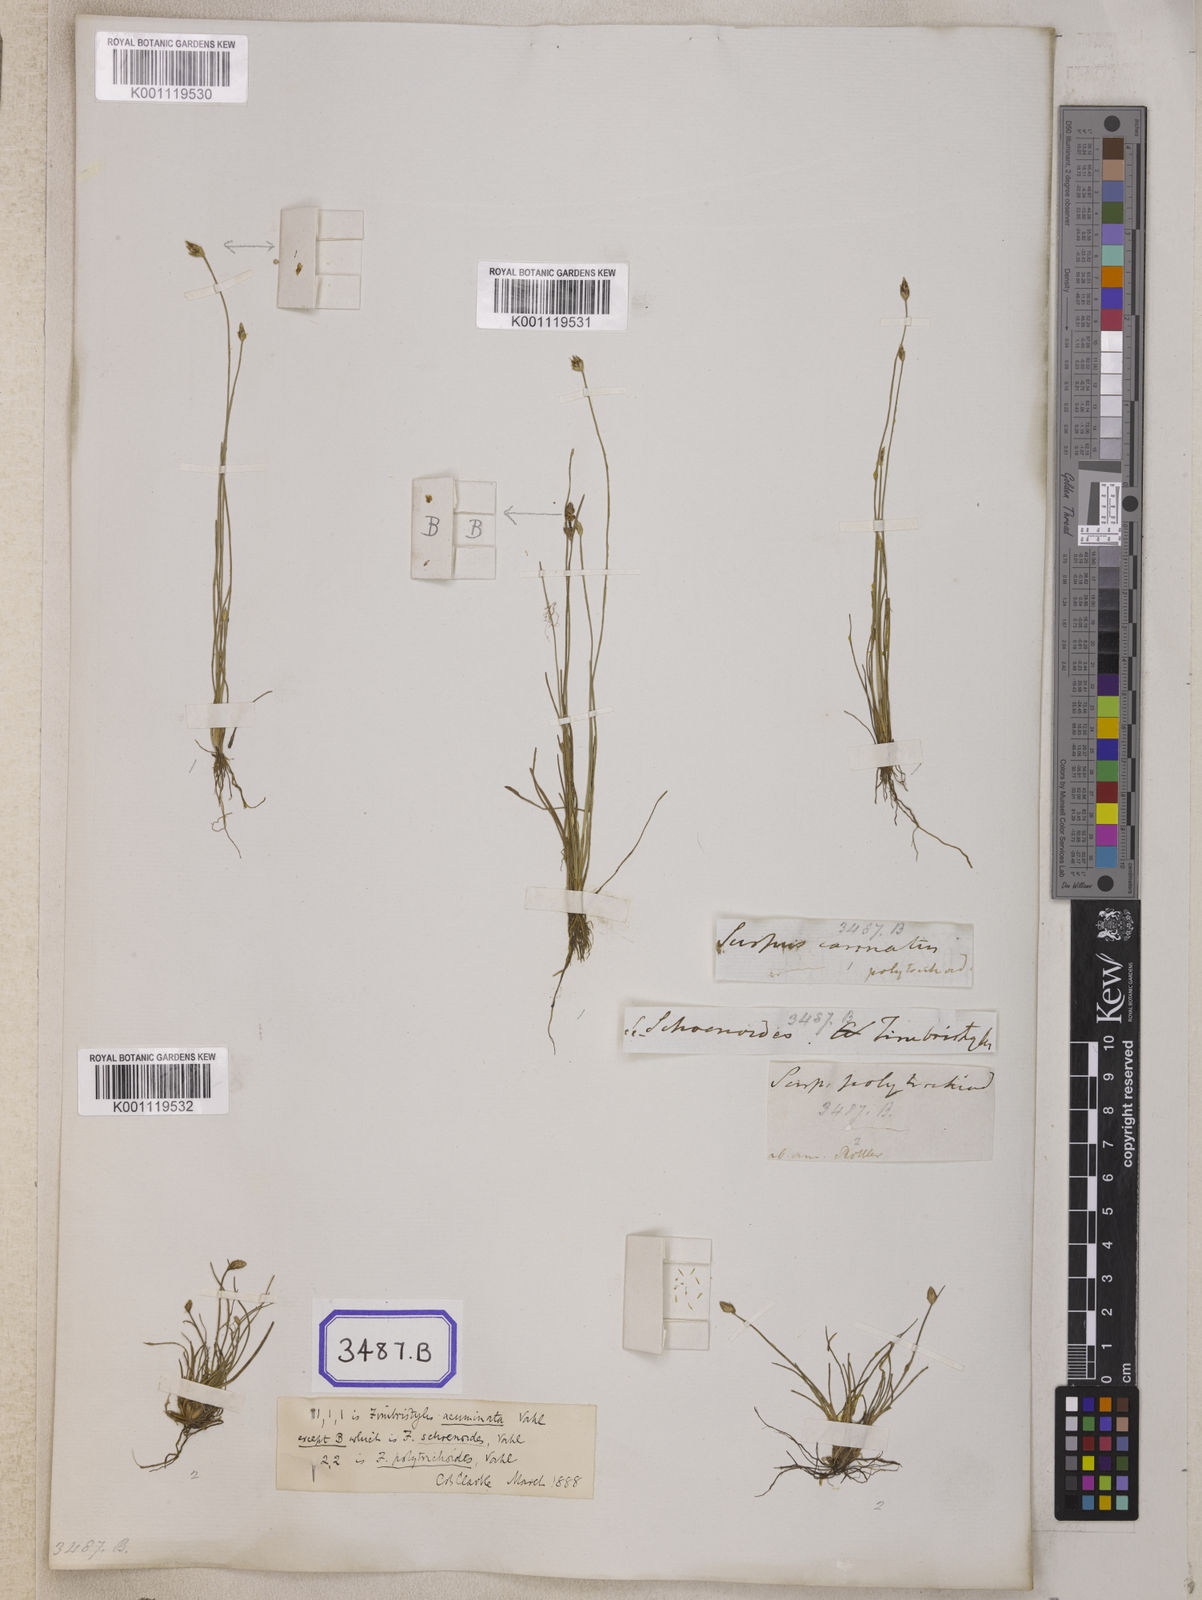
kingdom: Plantae
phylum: Tracheophyta
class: Liliopsida
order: Poales
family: Cyperaceae
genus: Isolepis
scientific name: Isolepis
